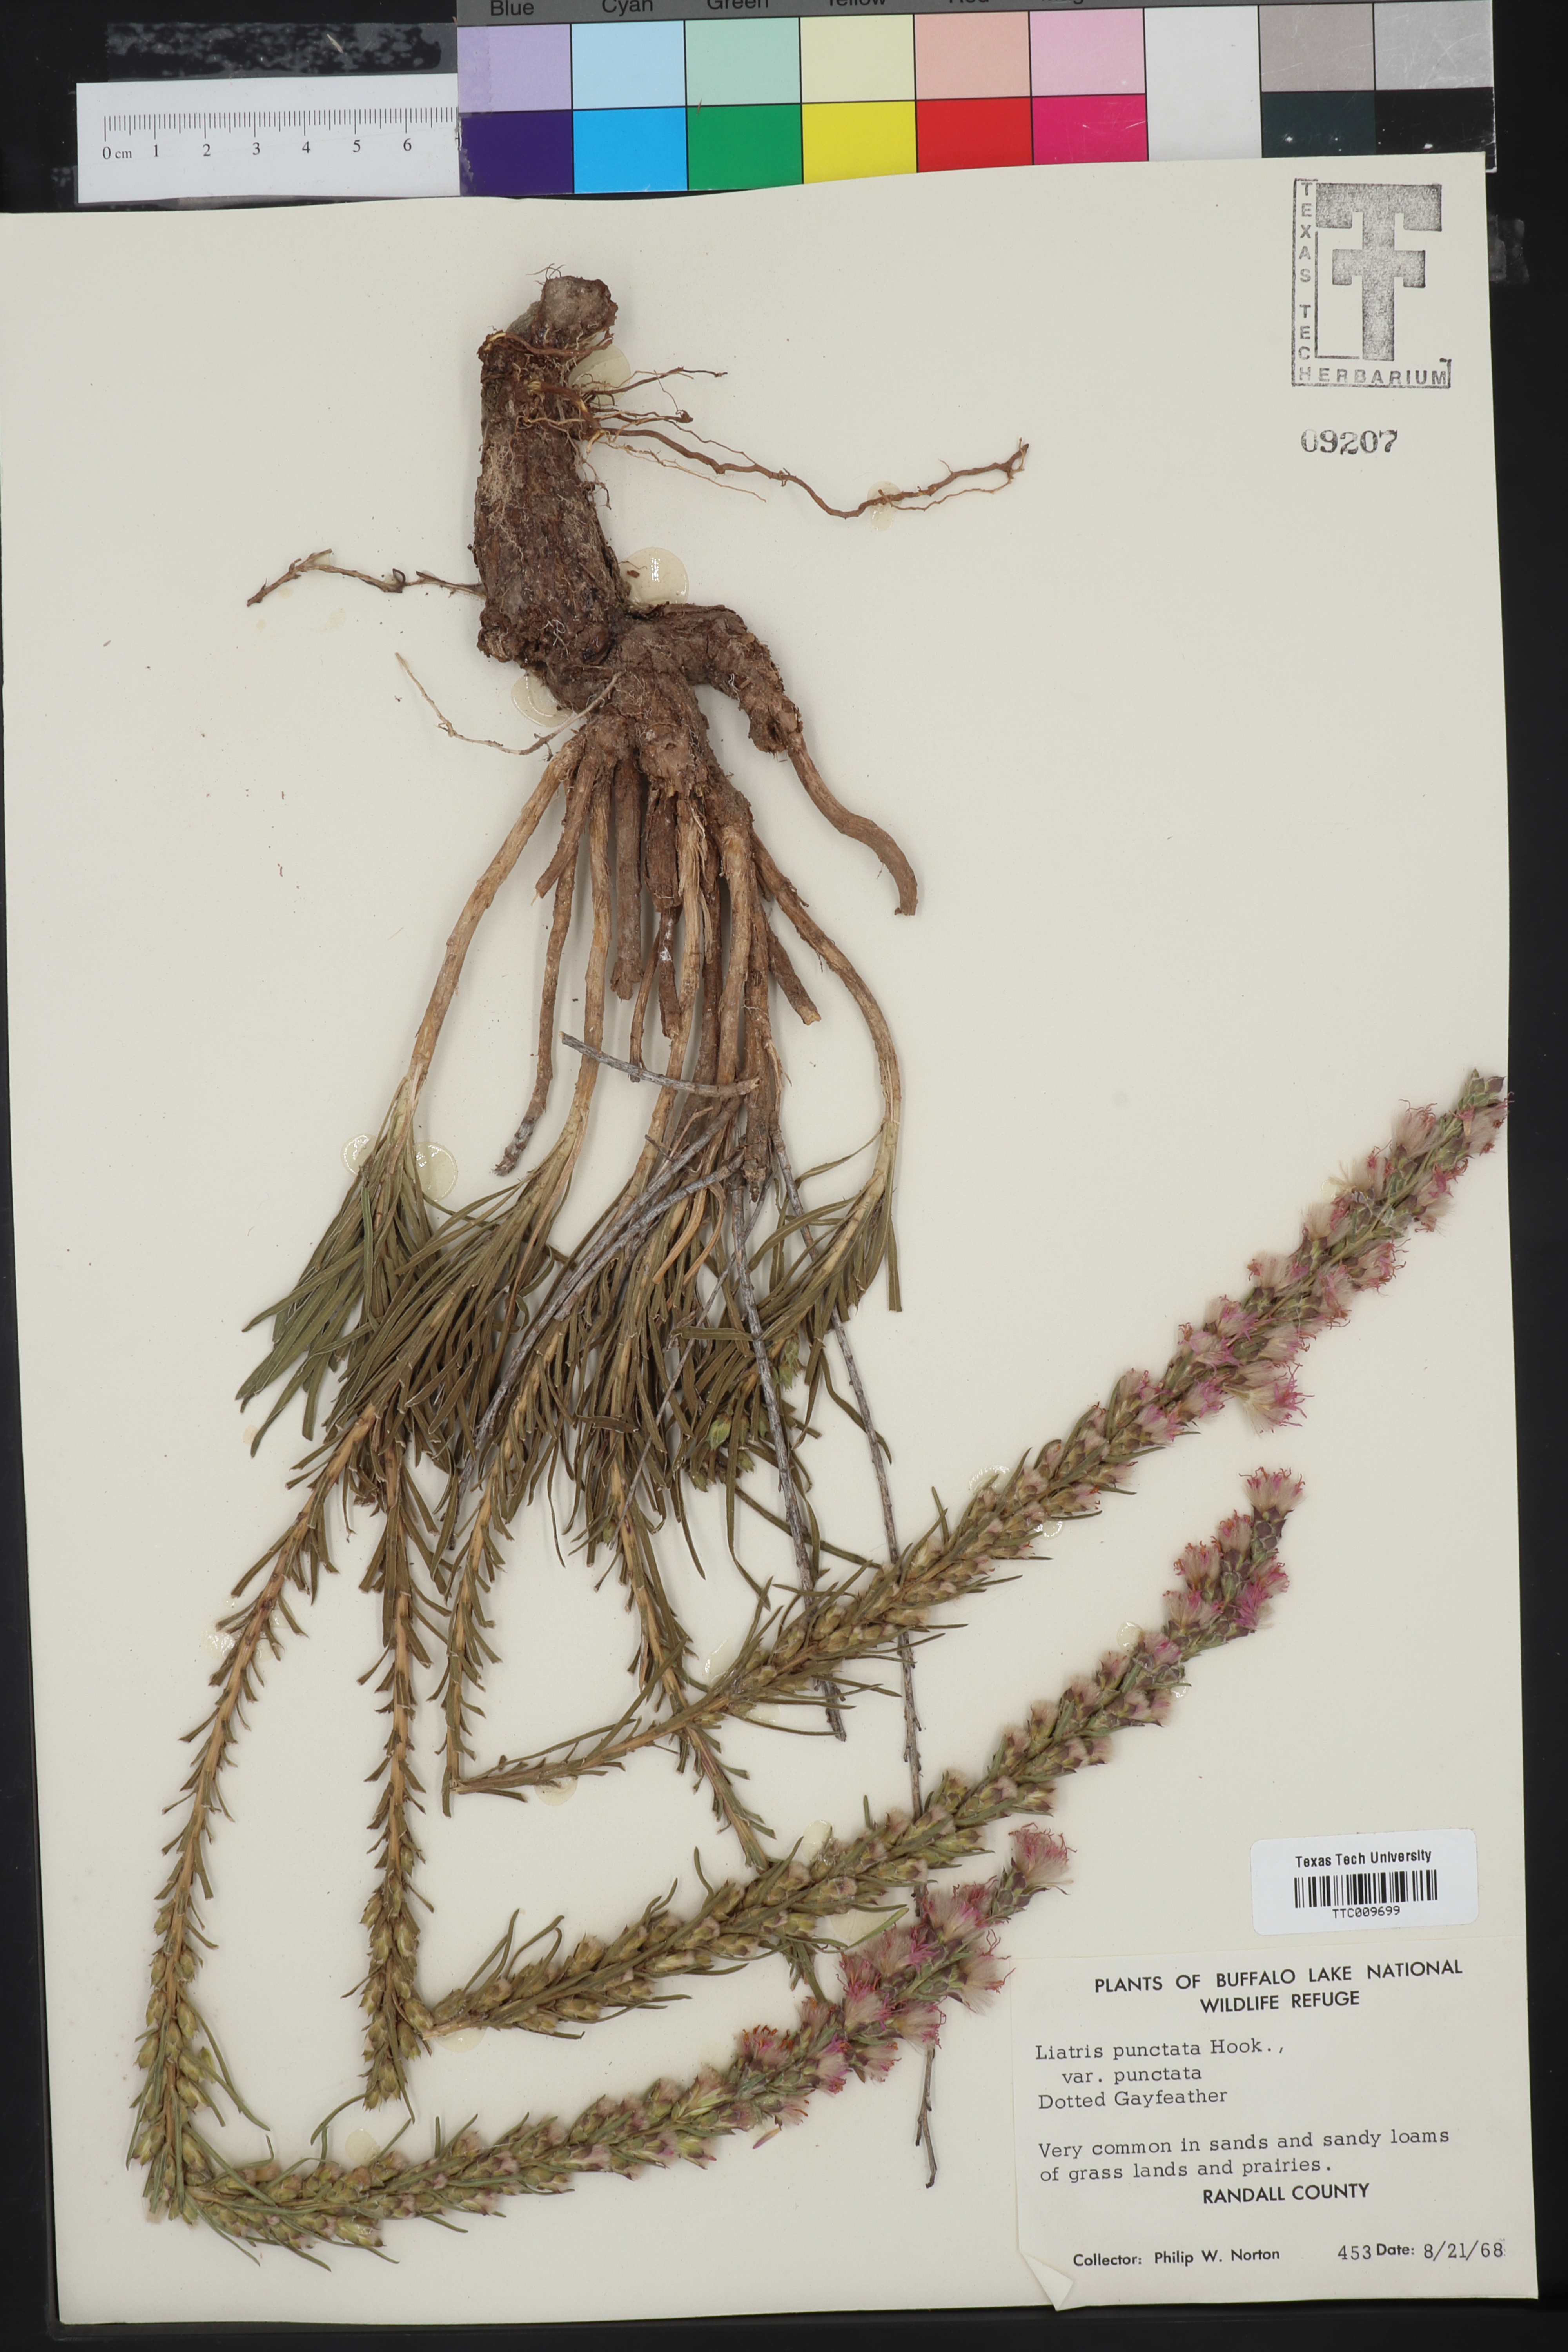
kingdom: Plantae
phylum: Tracheophyta
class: Magnoliopsida
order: Asterales
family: Asteraceae
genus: Liatris
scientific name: Liatris punctata
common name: Dotted gayfeather
